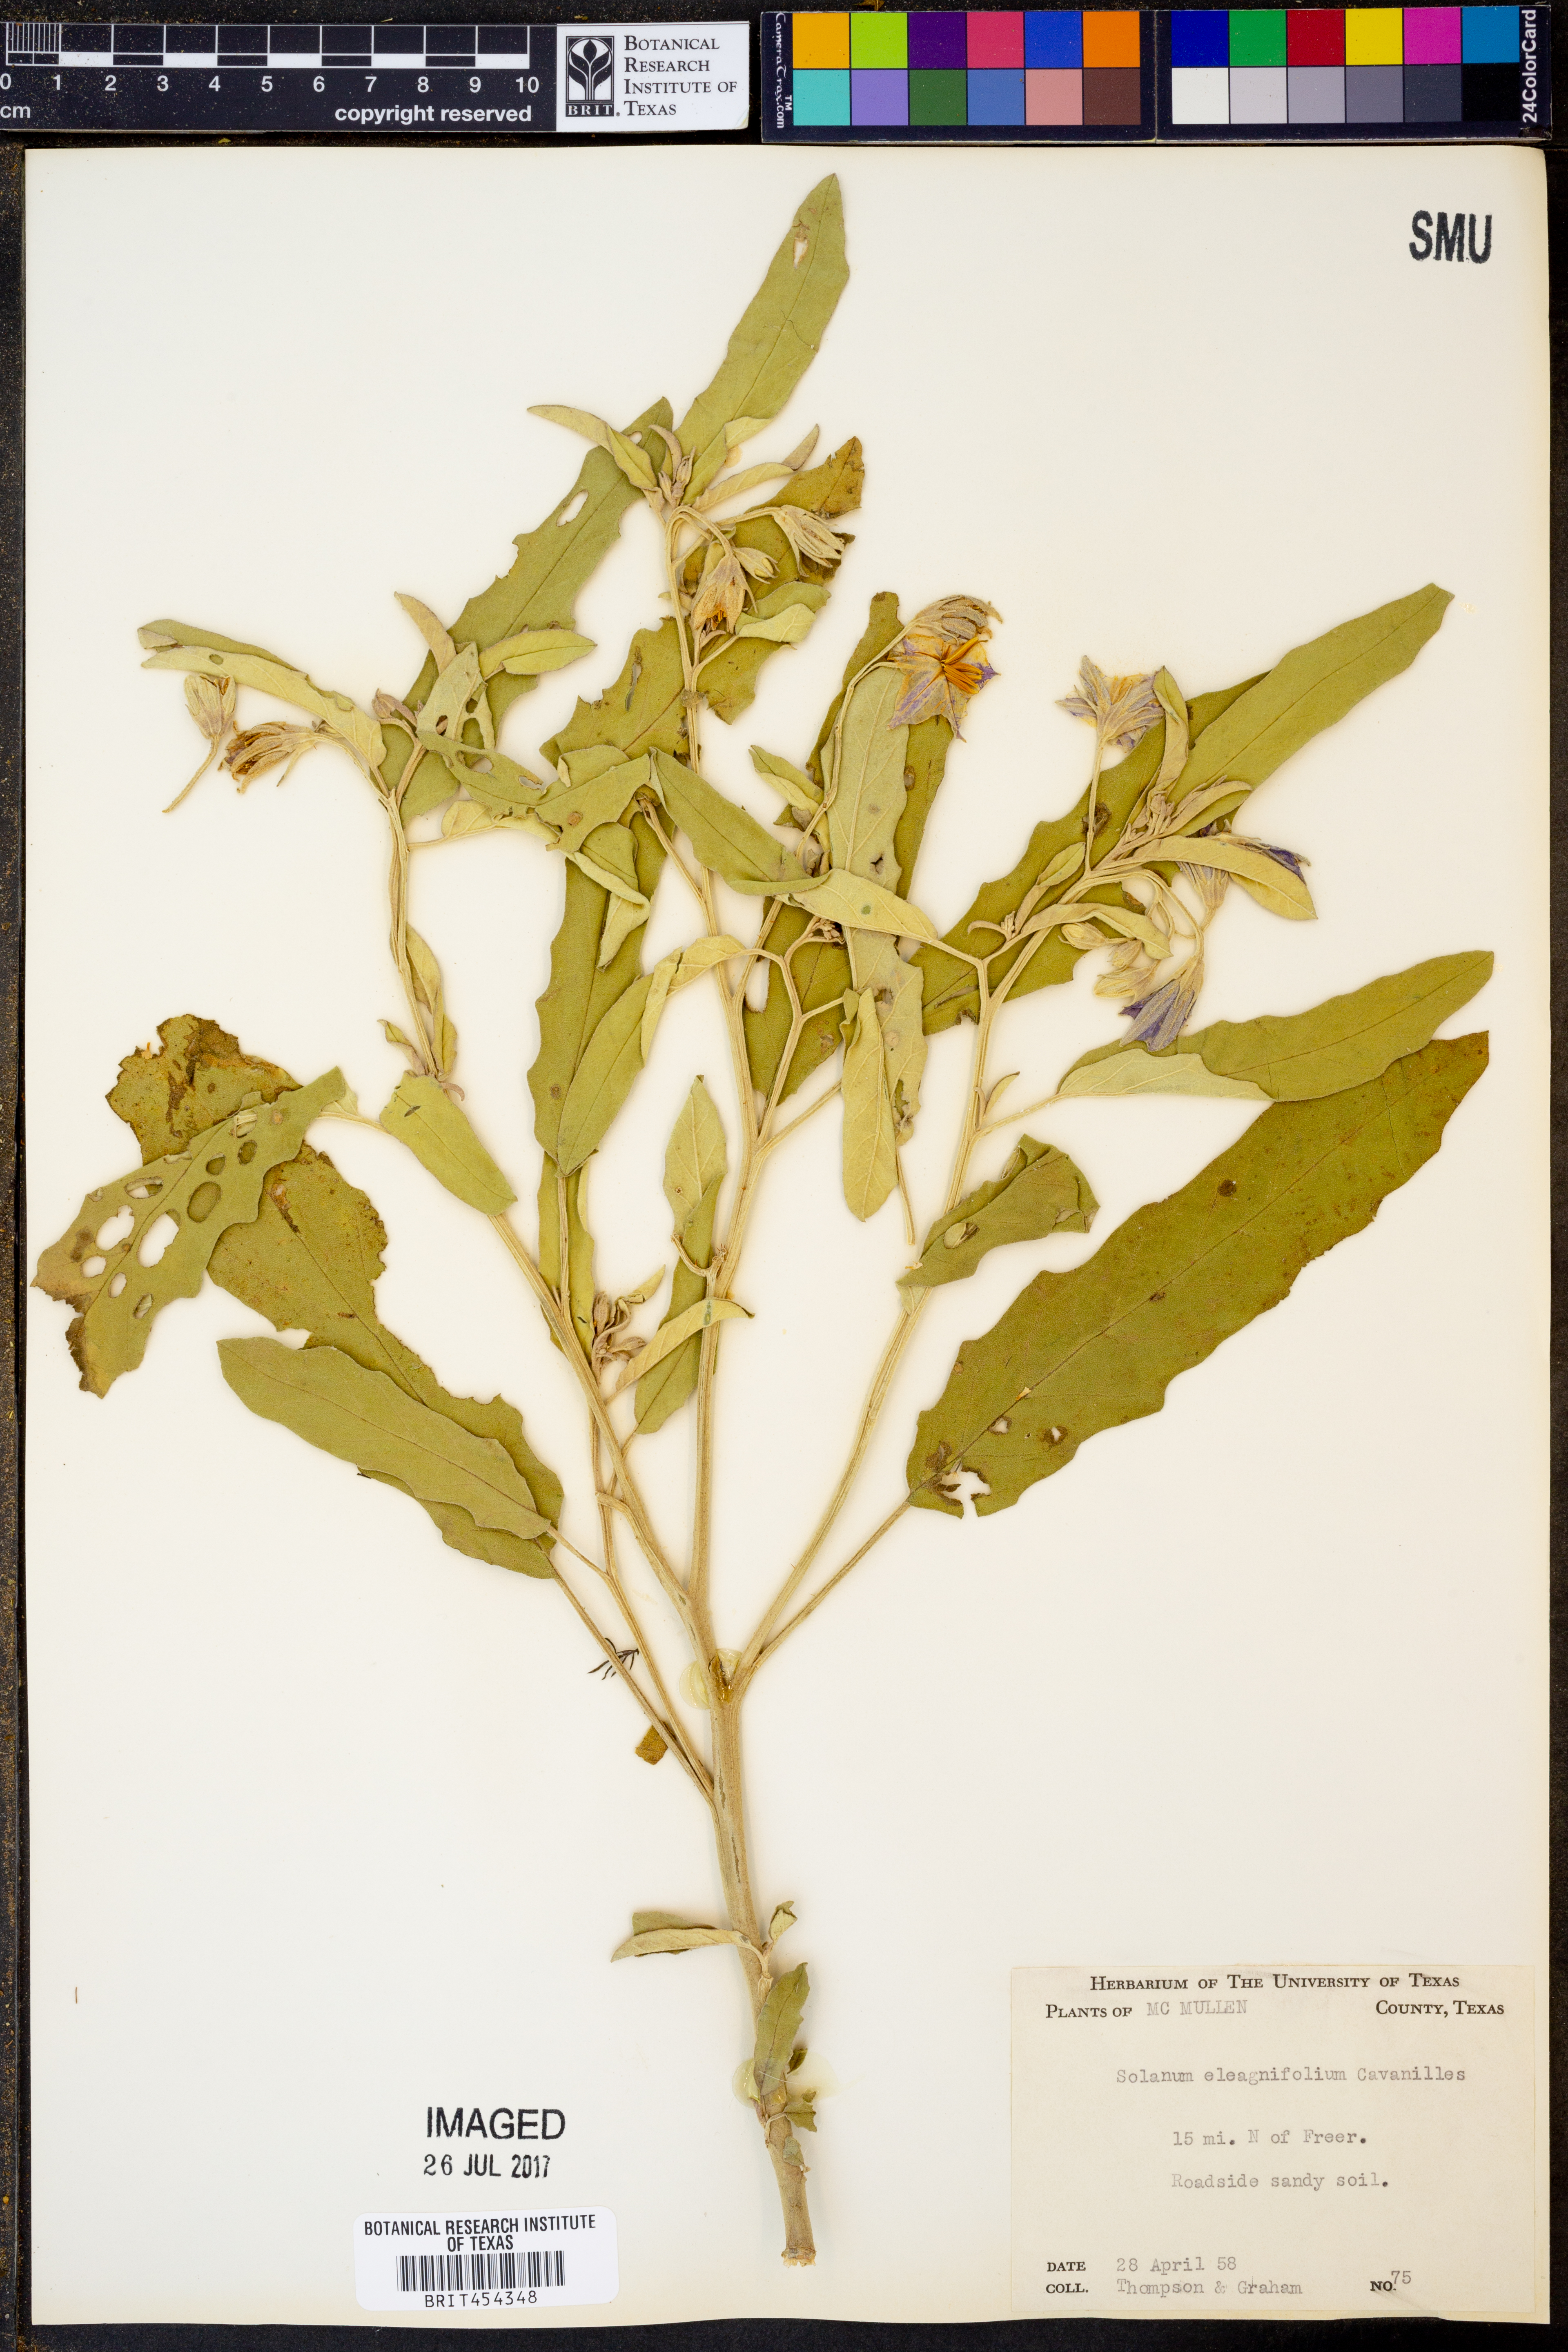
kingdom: Plantae
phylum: Tracheophyta
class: Magnoliopsida
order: Solanales
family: Solanaceae
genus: Solanum
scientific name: Solanum elaeagnifolium
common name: Silverleaf nightshade
